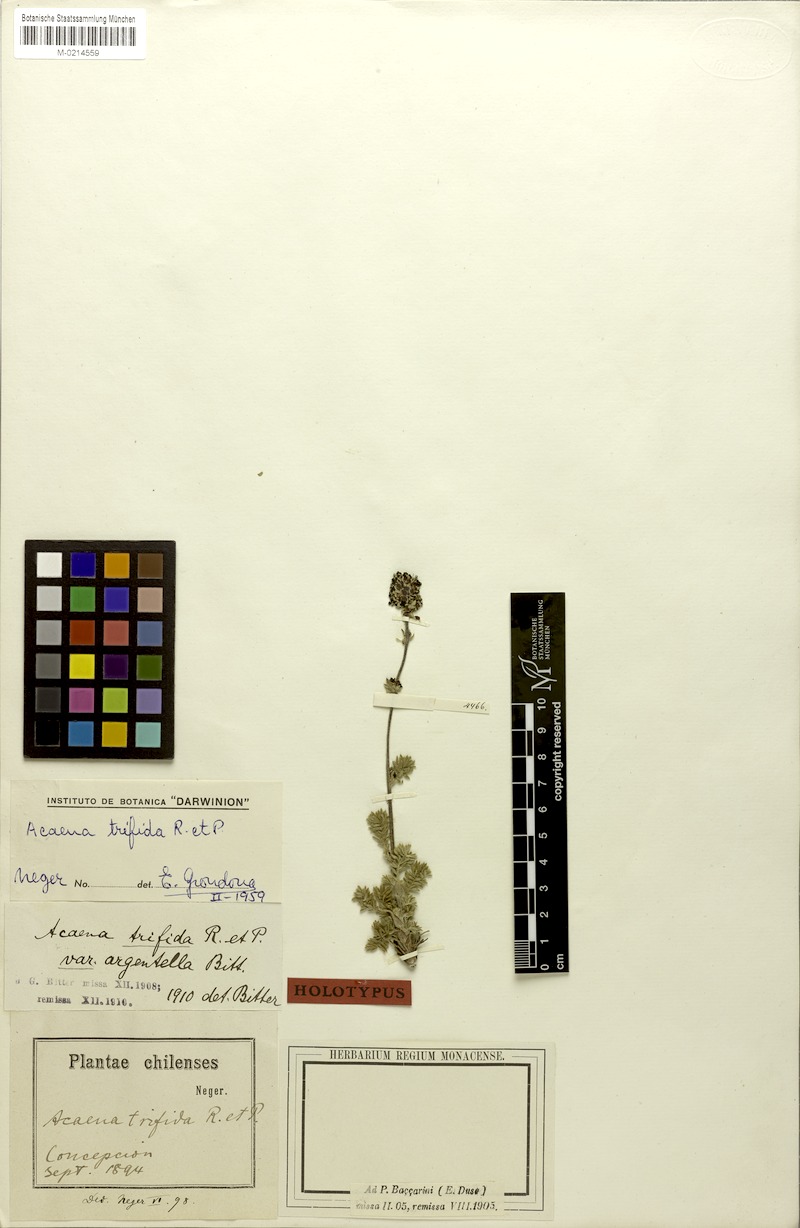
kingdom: Plantae
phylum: Tracheophyta
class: Magnoliopsida
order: Rosales
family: Rosaceae
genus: Acaena
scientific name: Acaena trifida
